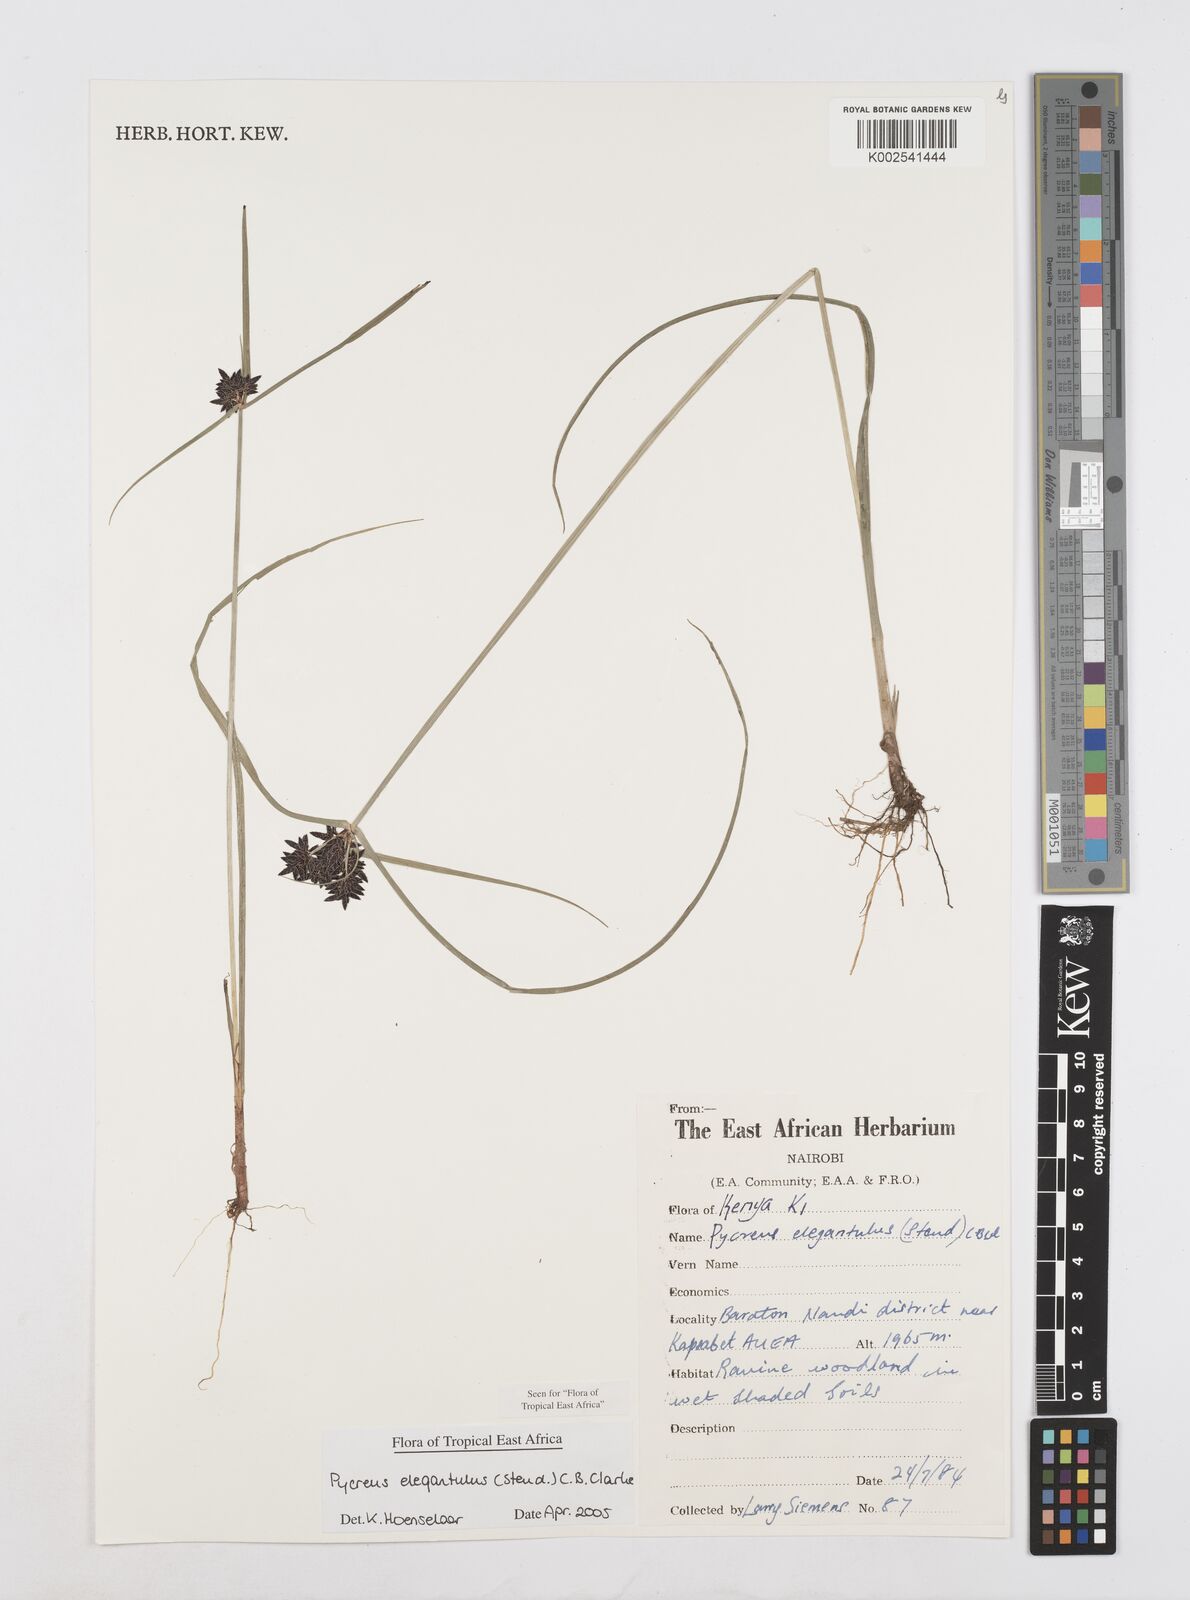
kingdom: Plantae
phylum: Tracheophyta
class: Liliopsida
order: Poales
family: Cyperaceae
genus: Cyperus
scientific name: Cyperus elegantulus
